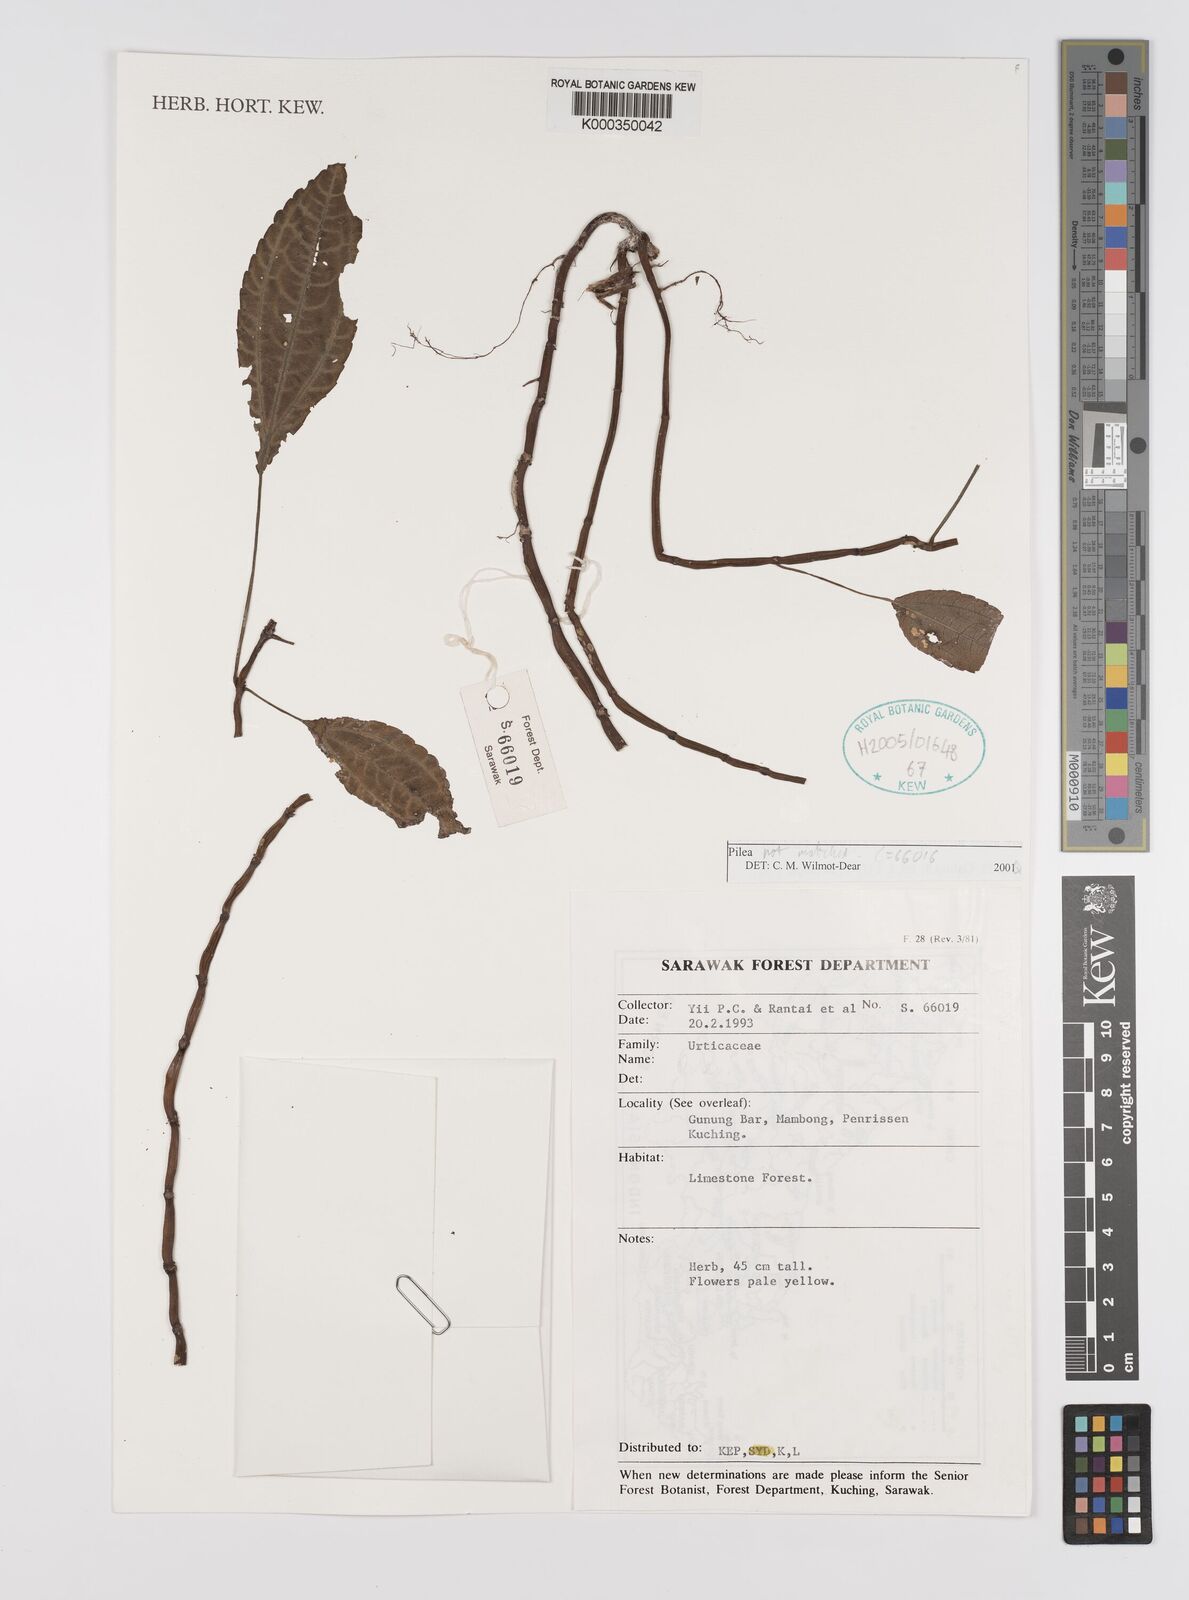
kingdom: Plantae
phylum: Tracheophyta
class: Magnoliopsida
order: Rosales
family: Urticaceae
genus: Pilea
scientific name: Pilea
